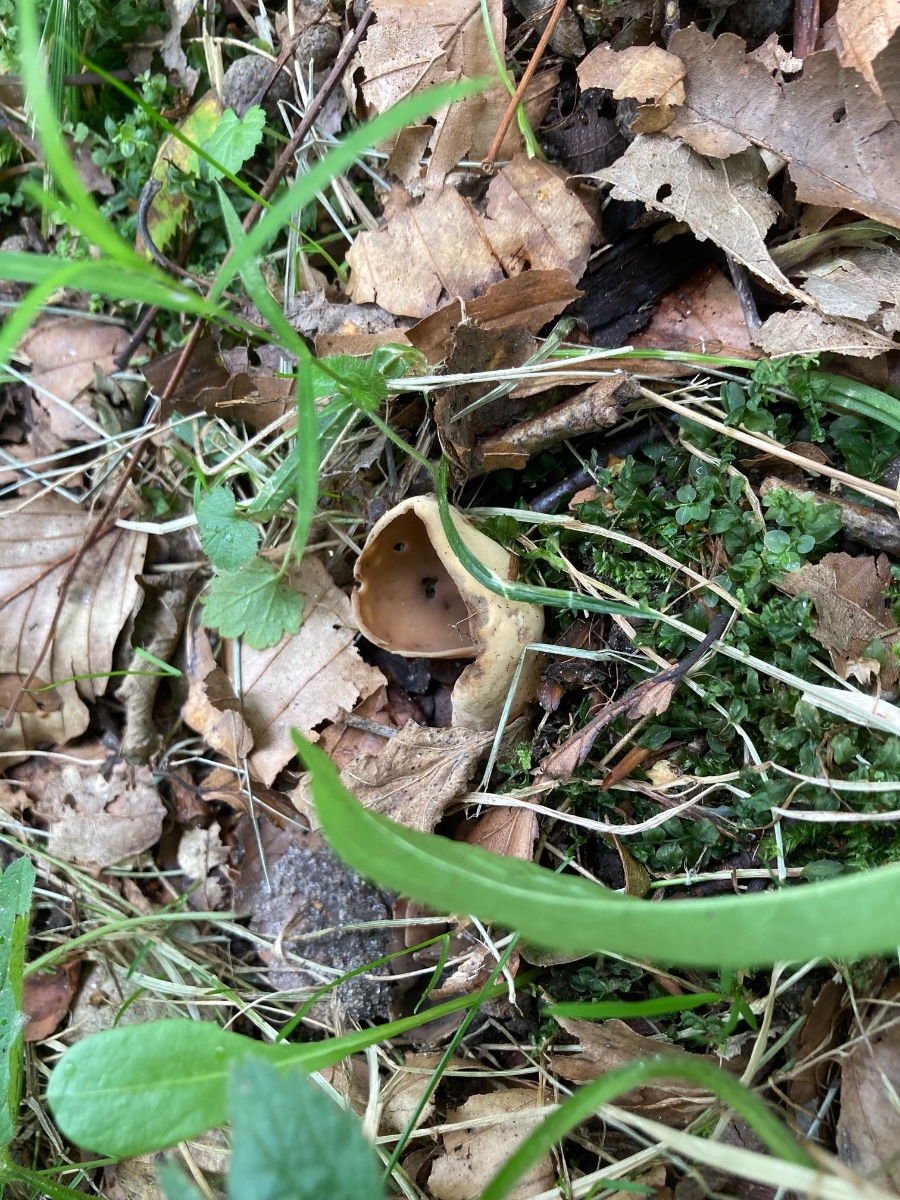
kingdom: Fungi
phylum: Ascomycota
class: Pezizomycetes
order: Pezizales
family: Otideaceae
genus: Otidea
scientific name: Otidea alutacea
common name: læder-ørebæger
